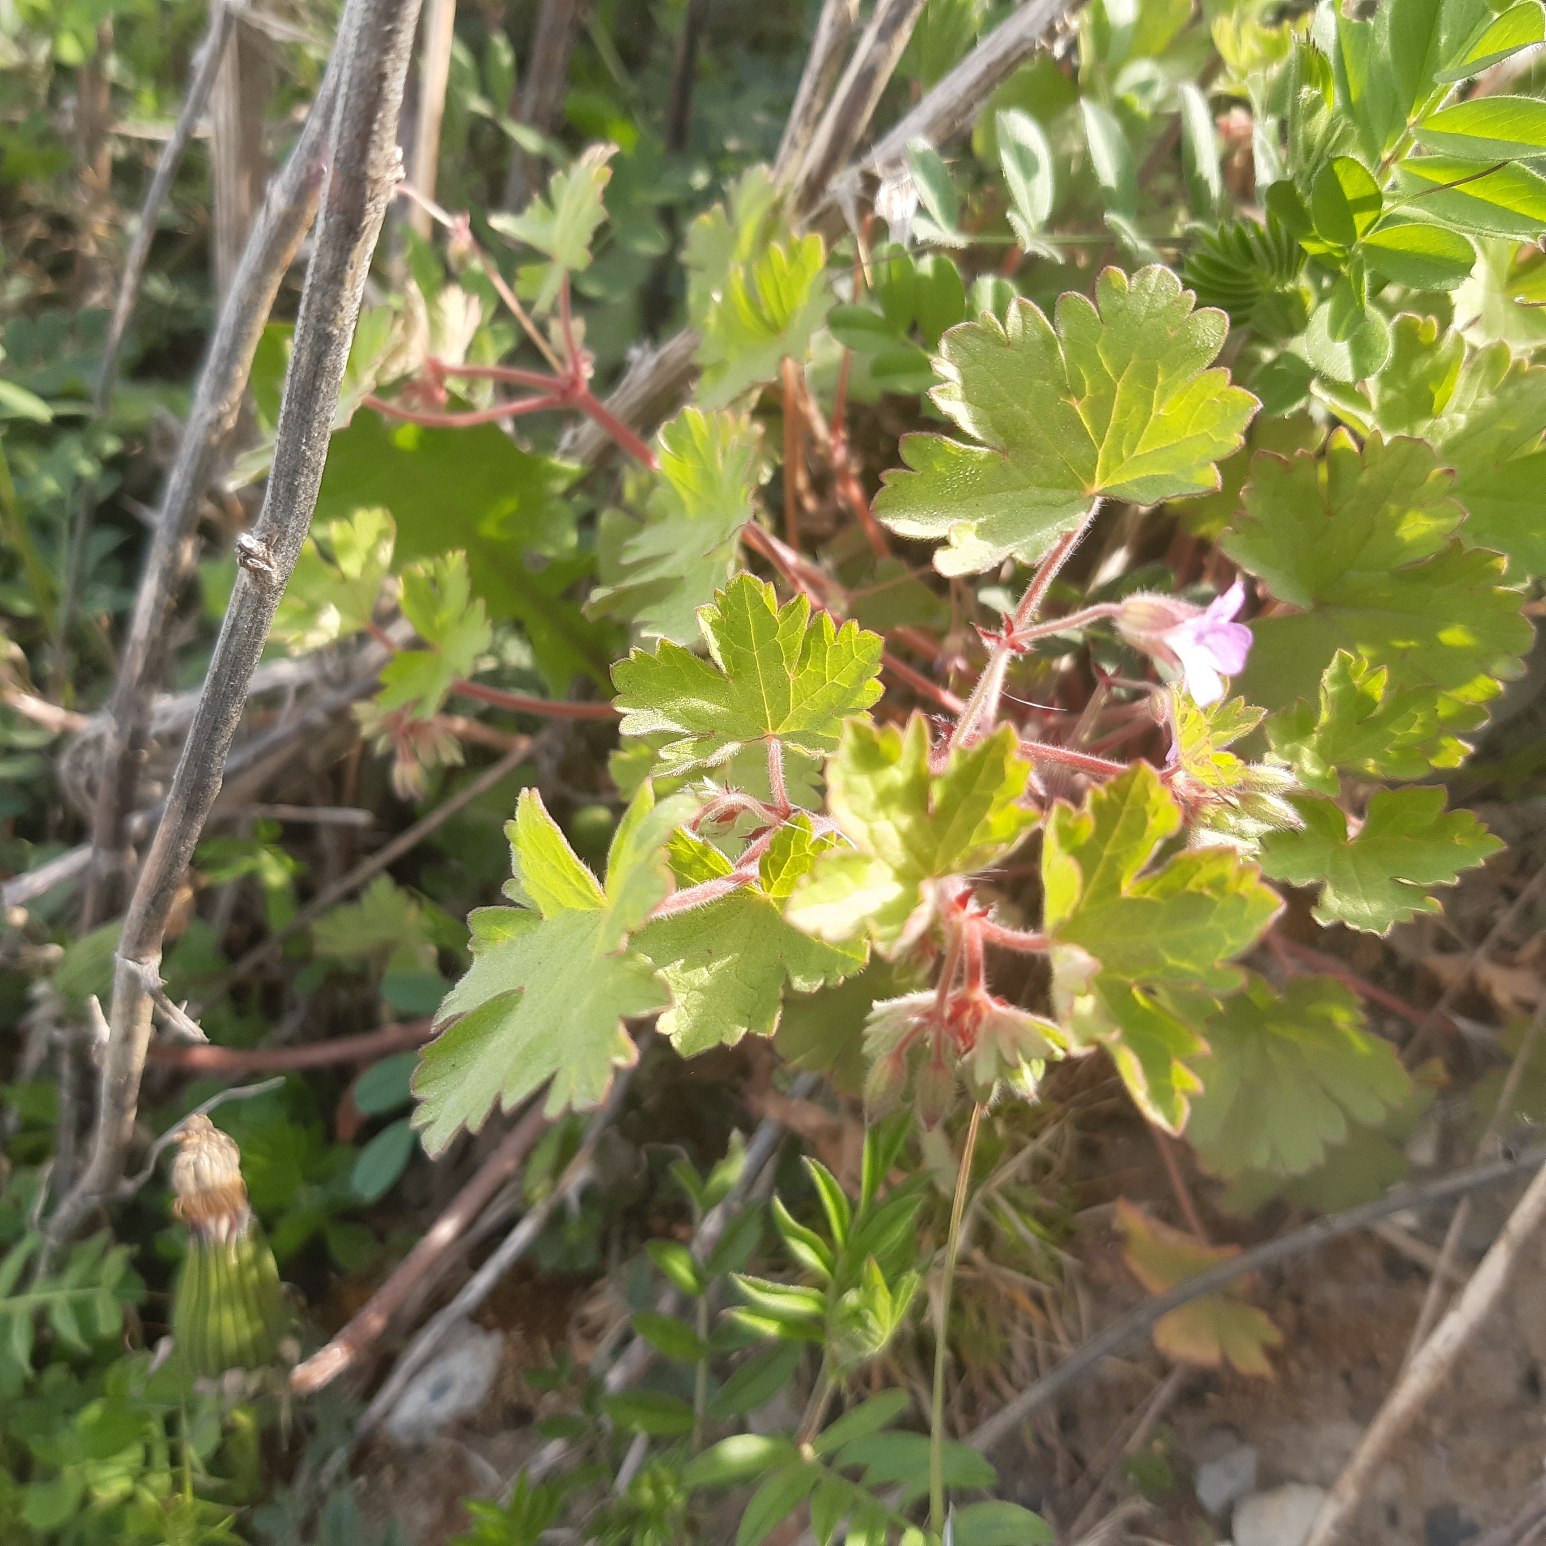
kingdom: Plantae
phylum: Tracheophyta
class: Magnoliopsida
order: Geraniales
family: Geraniaceae
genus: Geranium
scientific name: Geranium rotundifolium
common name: Rundbladet storkenæb
